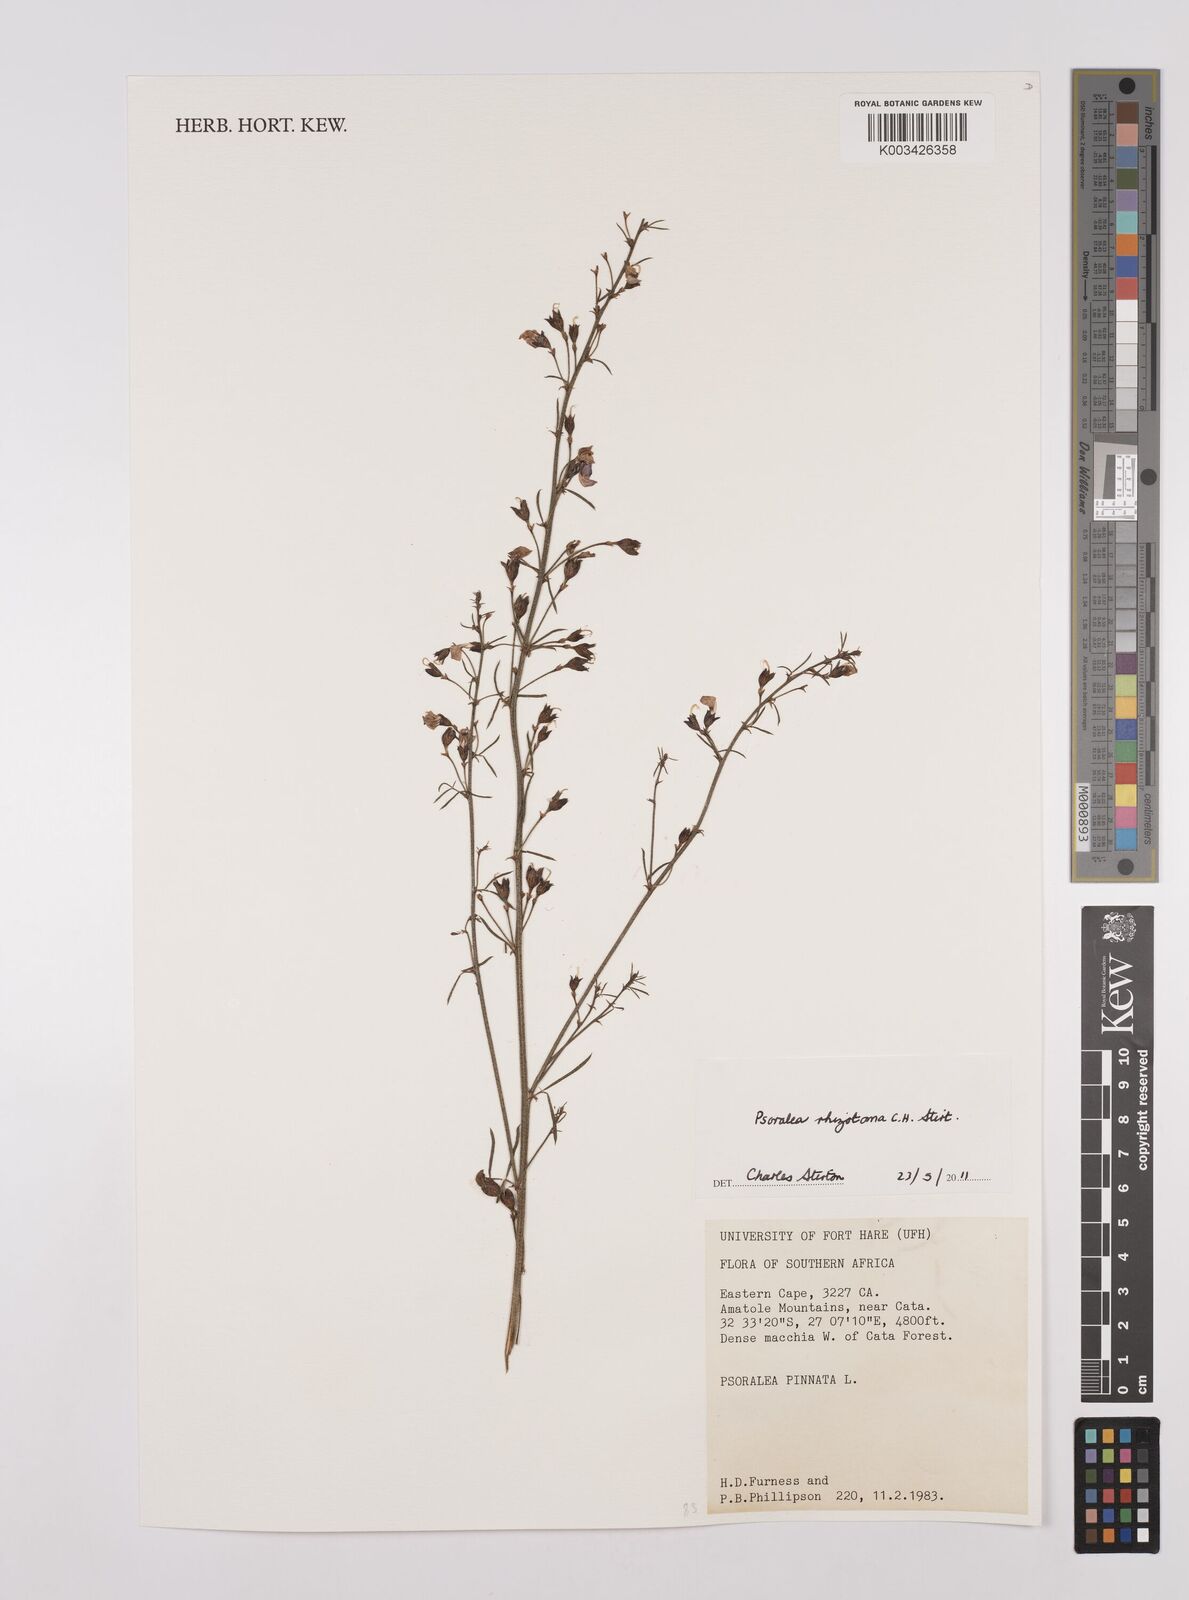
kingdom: Plantae
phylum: Tracheophyta
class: Magnoliopsida
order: Fabales
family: Fabaceae
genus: Psoralea
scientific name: Psoralea rhizotoma
